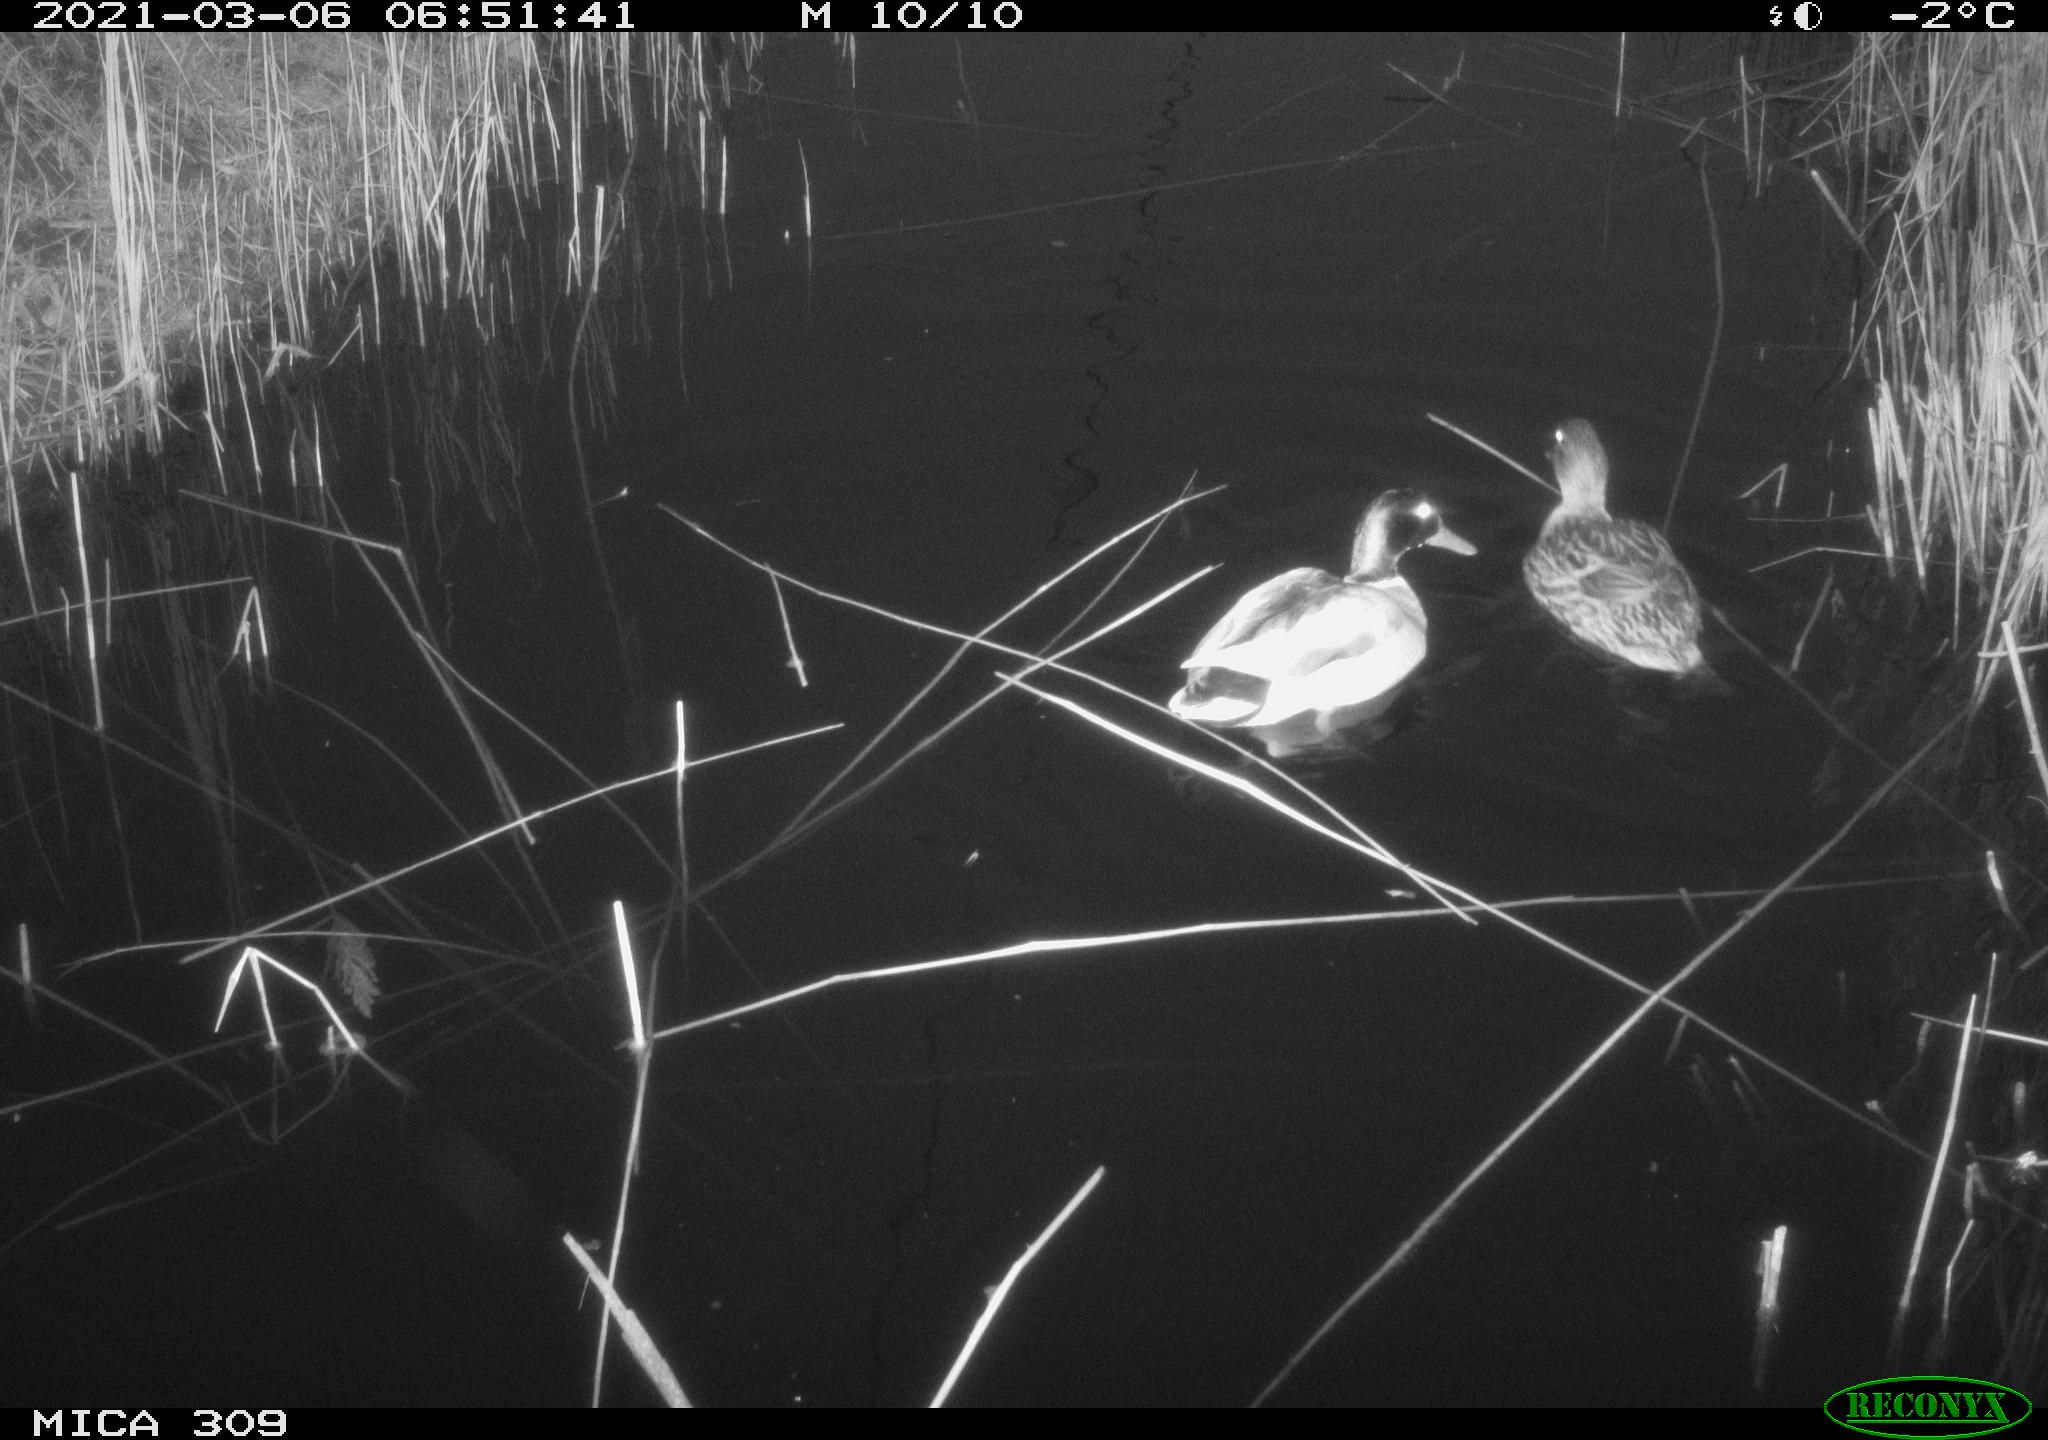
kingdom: Animalia
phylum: Chordata
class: Aves
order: Anseriformes
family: Anatidae
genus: Anas
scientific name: Anas platyrhynchos
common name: Mallard
